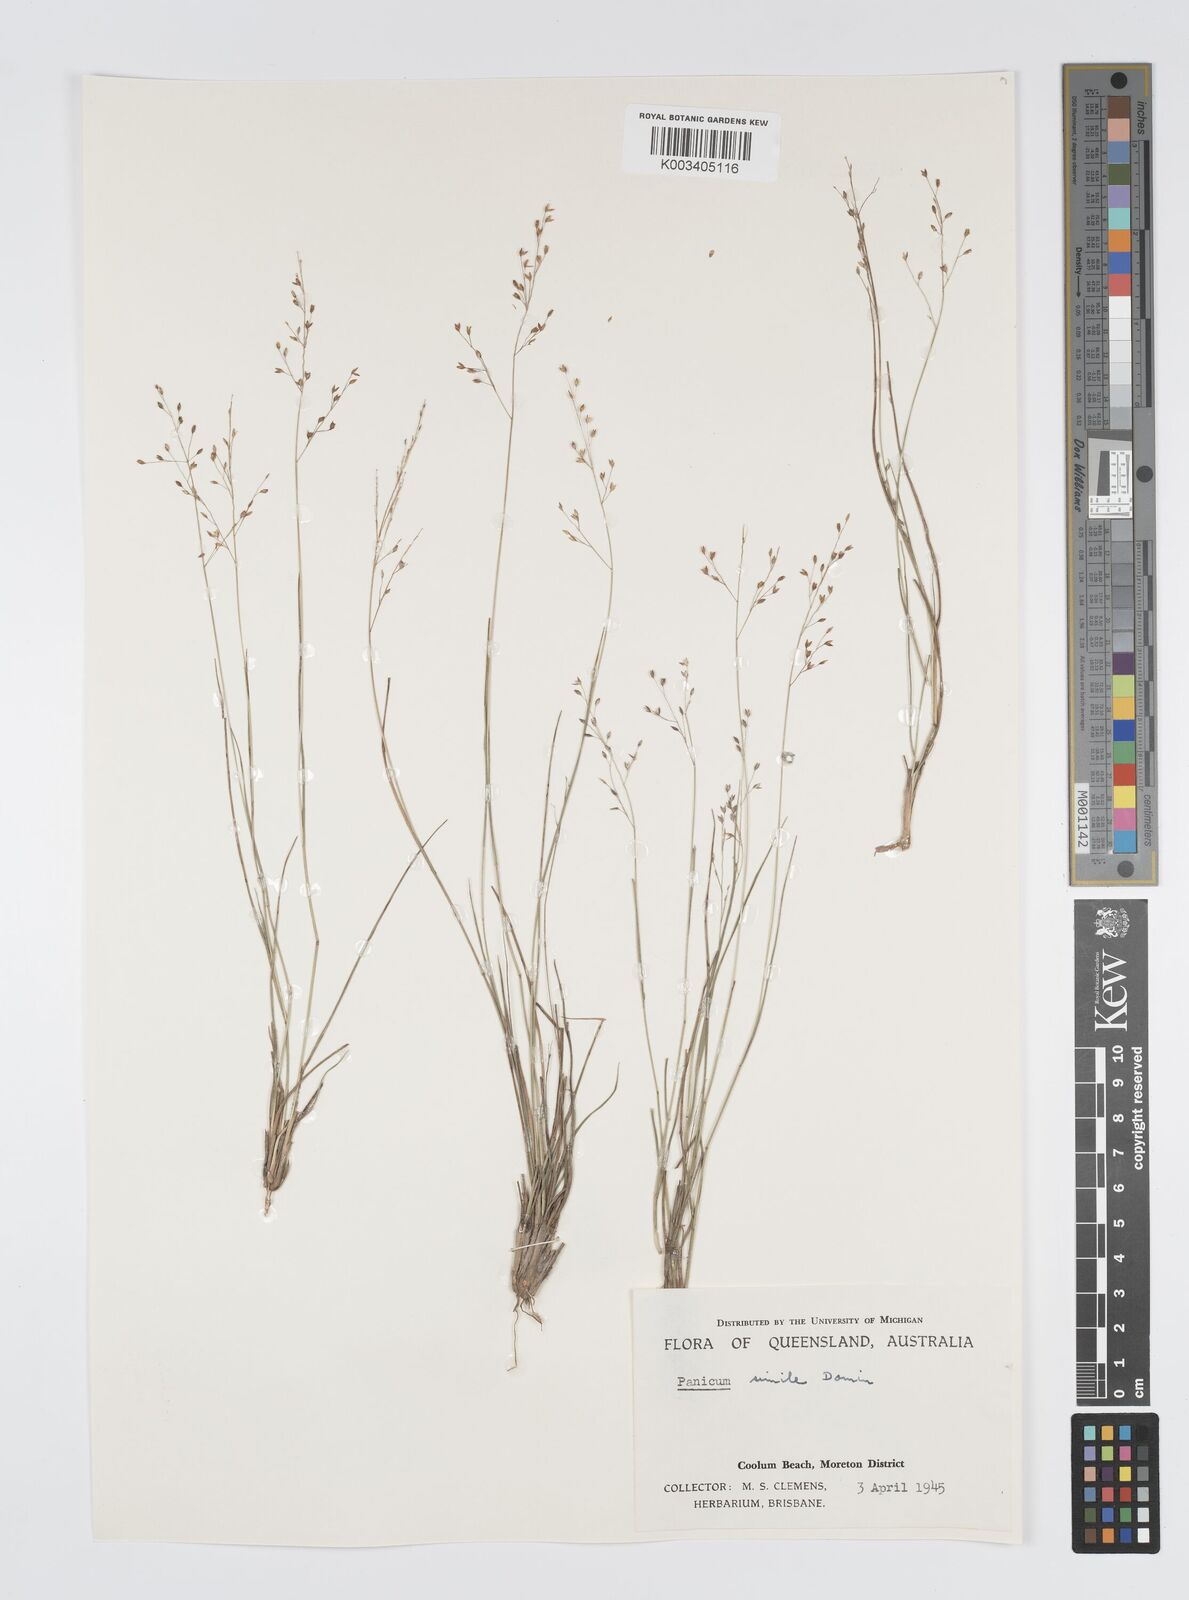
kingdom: Plantae
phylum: Tracheophyta
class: Liliopsida
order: Poales
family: Poaceae
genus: Panicum
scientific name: Panicum simile
